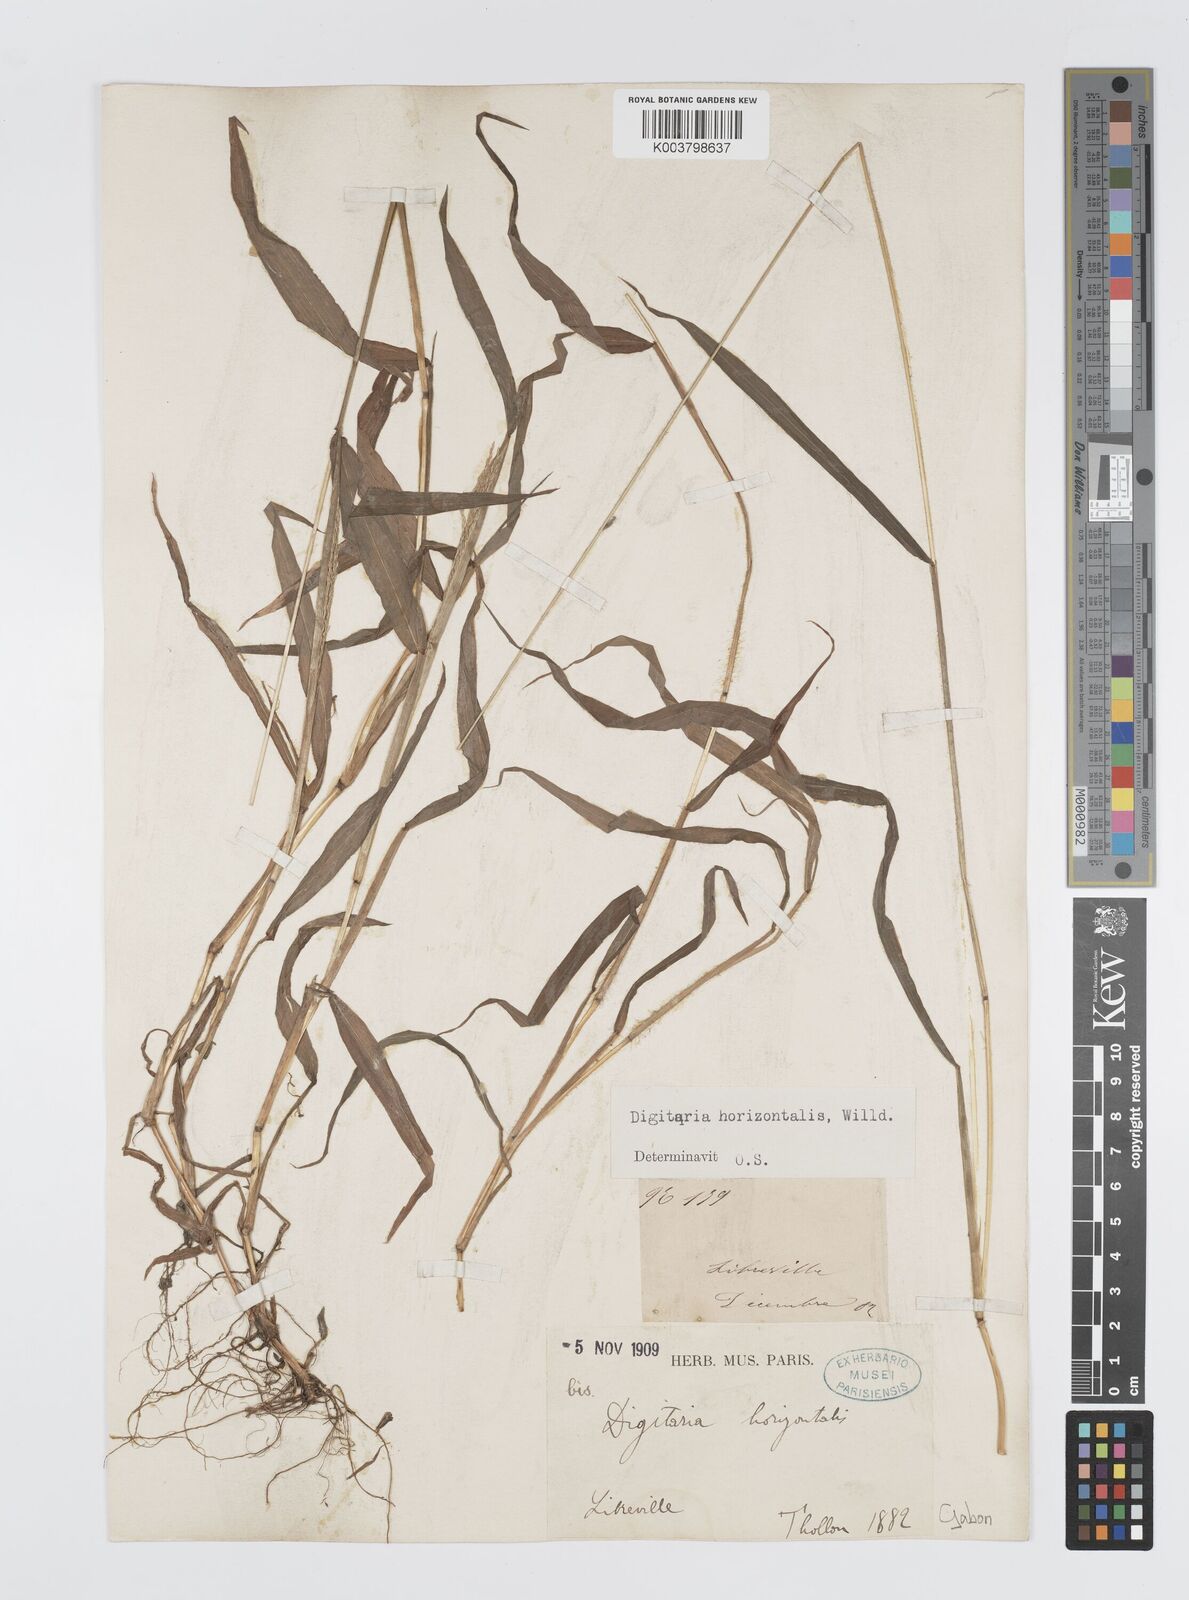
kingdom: Plantae
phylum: Tracheophyta
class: Liliopsida
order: Poales
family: Poaceae
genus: Digitaria
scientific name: Digitaria horizontalis
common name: Jamaican crabgrass
